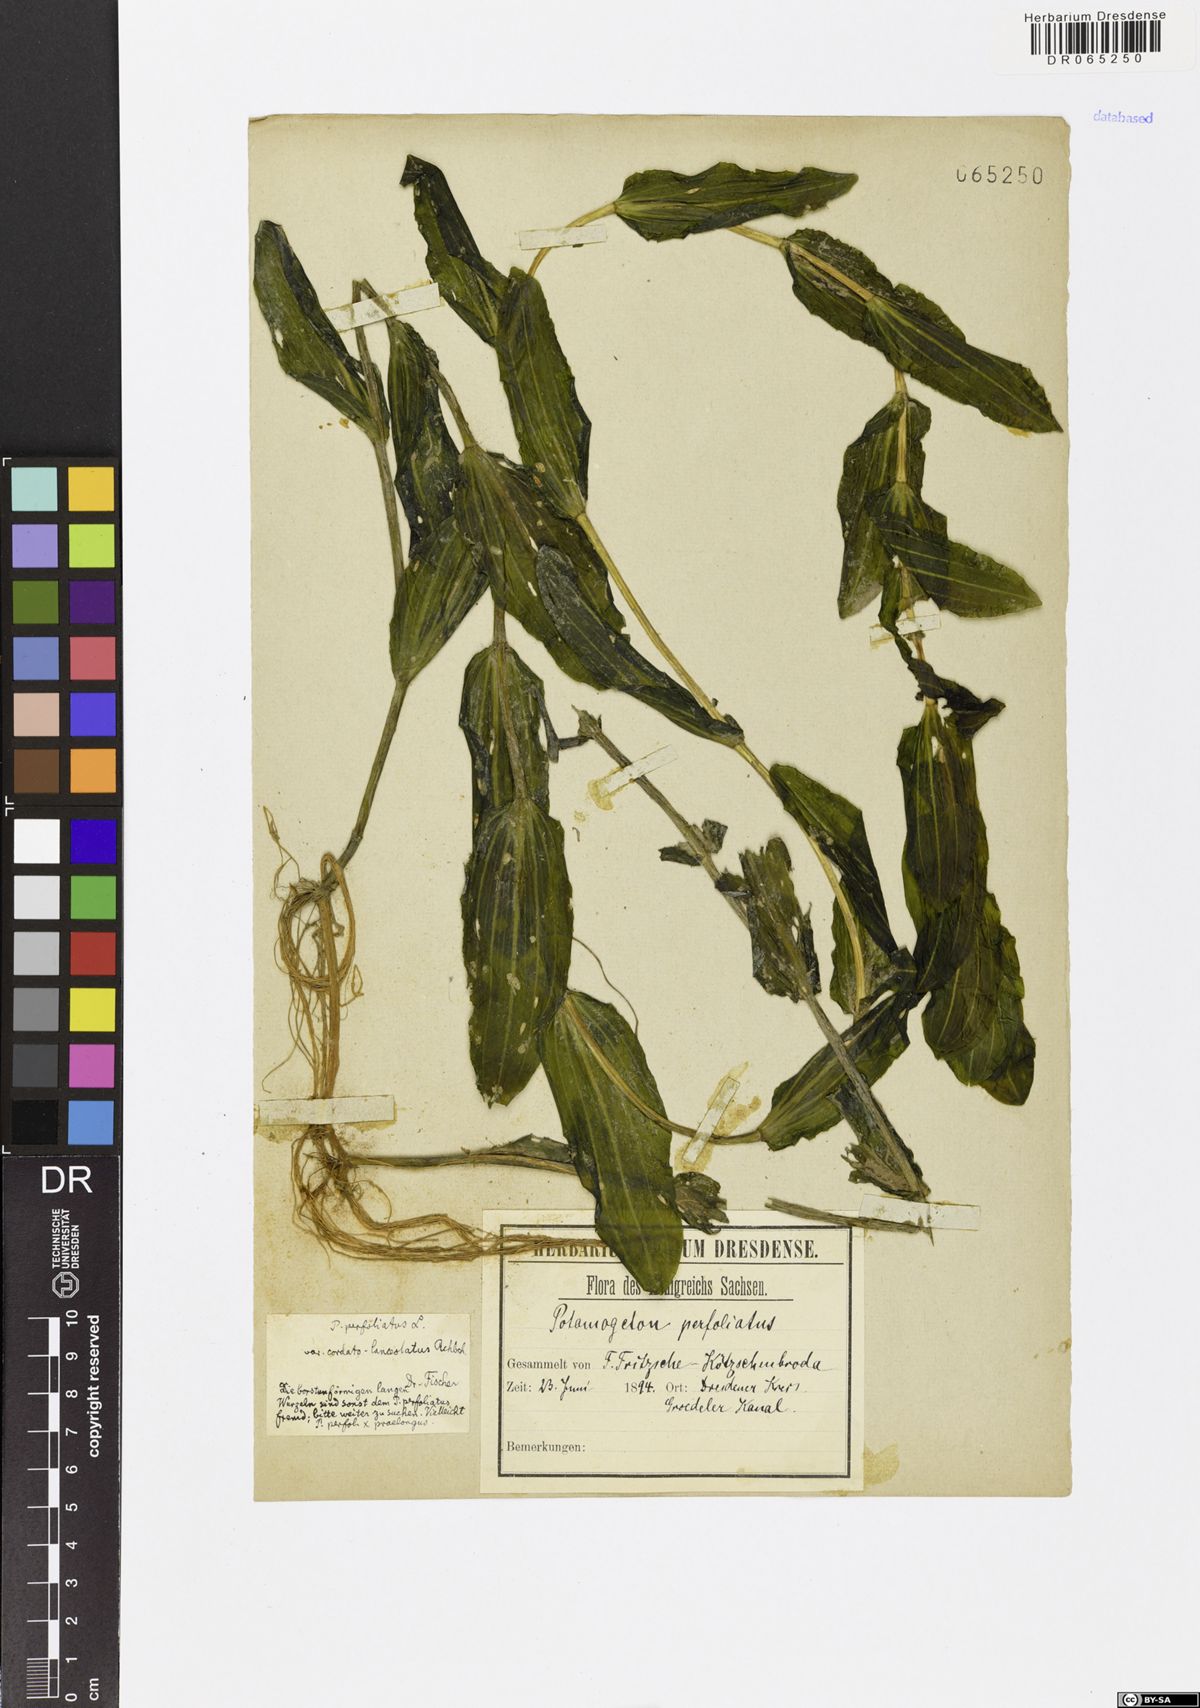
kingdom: Plantae
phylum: Tracheophyta
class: Liliopsida
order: Alismatales
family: Potamogetonaceae
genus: Potamogeton
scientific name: Potamogeton perfoliatus
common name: Perfoliate pondweed
